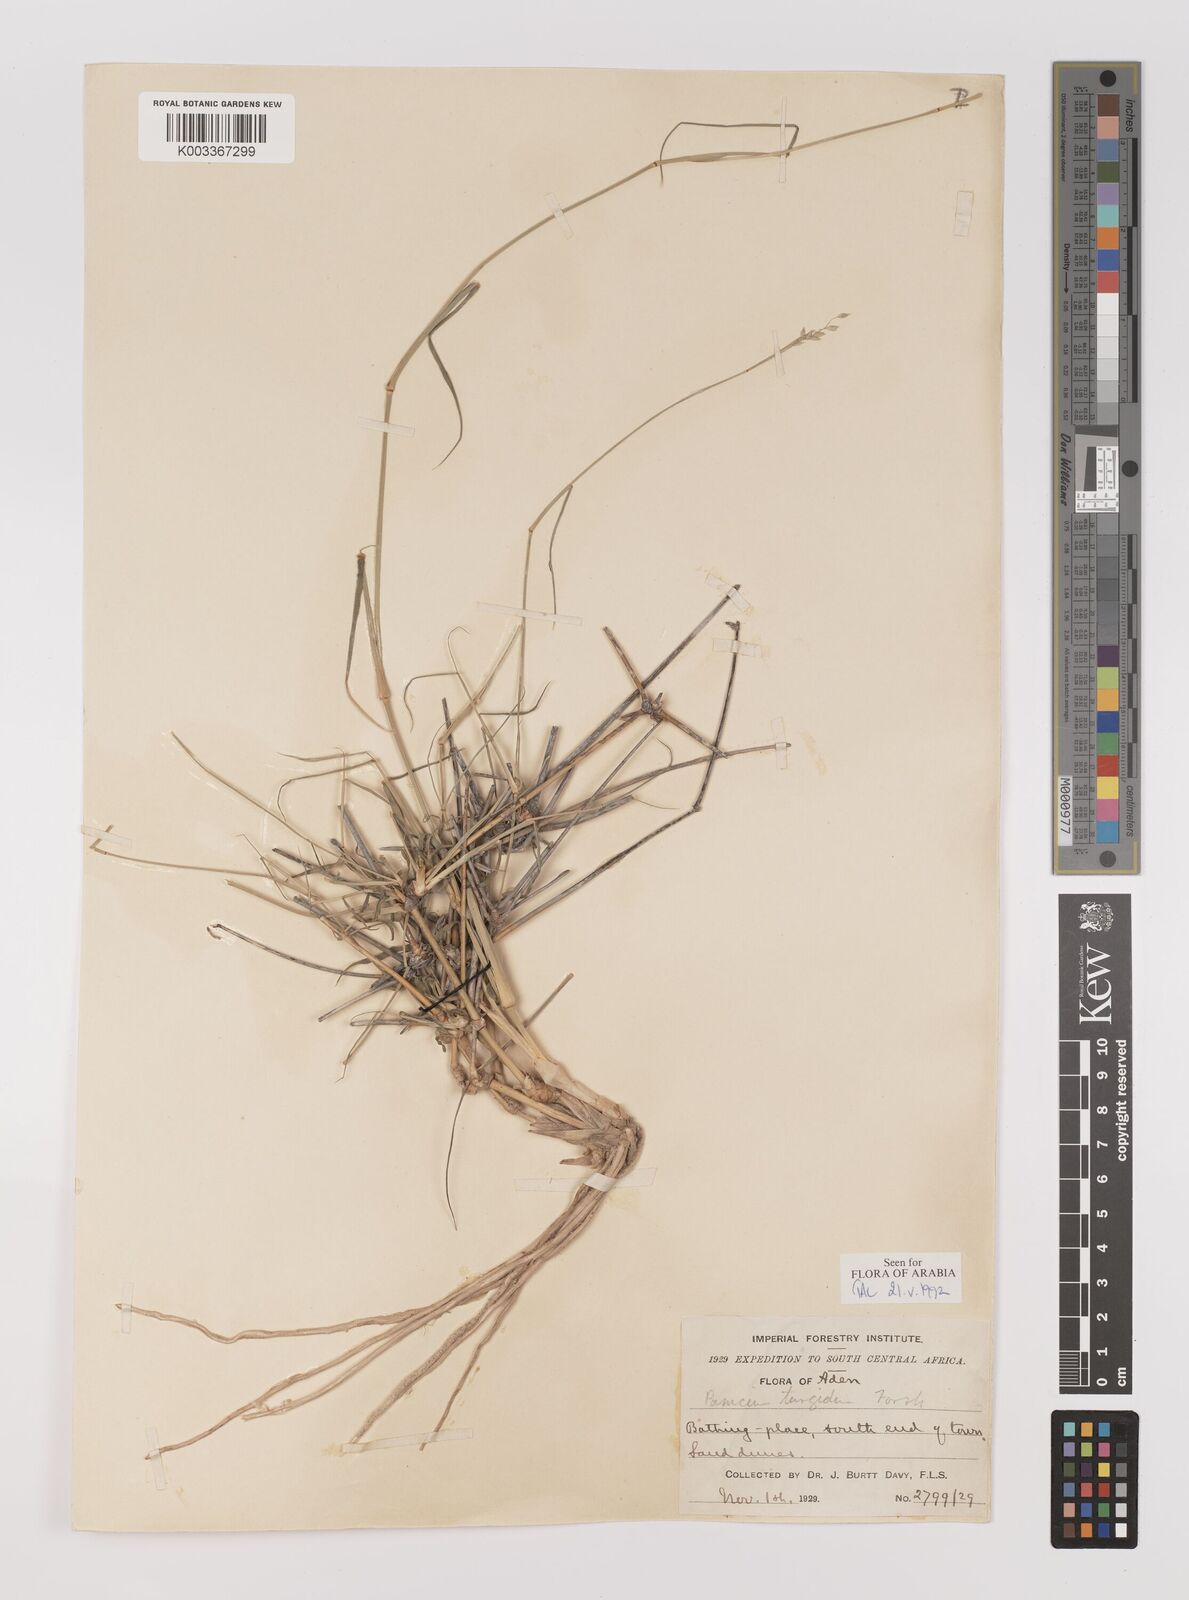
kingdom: Plantae
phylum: Tracheophyta
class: Liliopsida
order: Poales
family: Poaceae
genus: Panicum
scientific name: Panicum turgidum
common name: Desert grass
